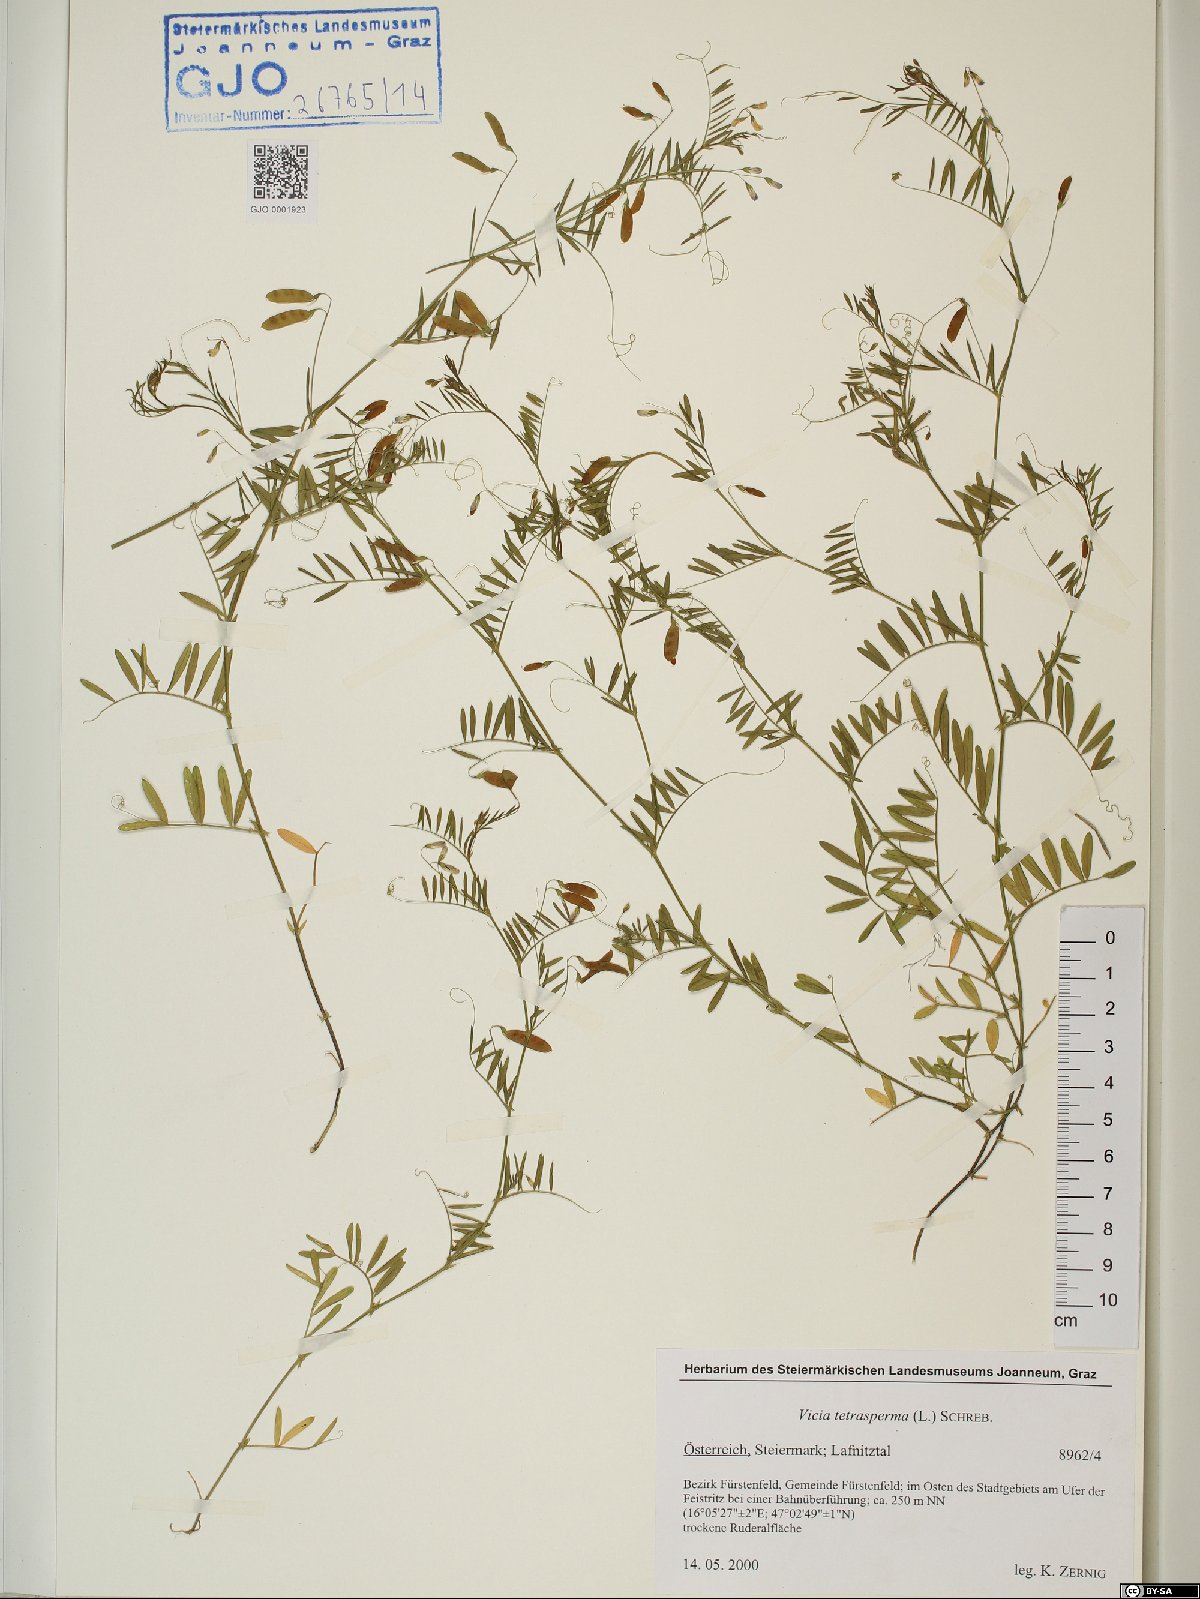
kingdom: Plantae
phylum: Tracheophyta
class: Magnoliopsida
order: Fabales
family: Fabaceae
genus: Vicia
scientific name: Vicia tetrasperma
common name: Smooth tare
